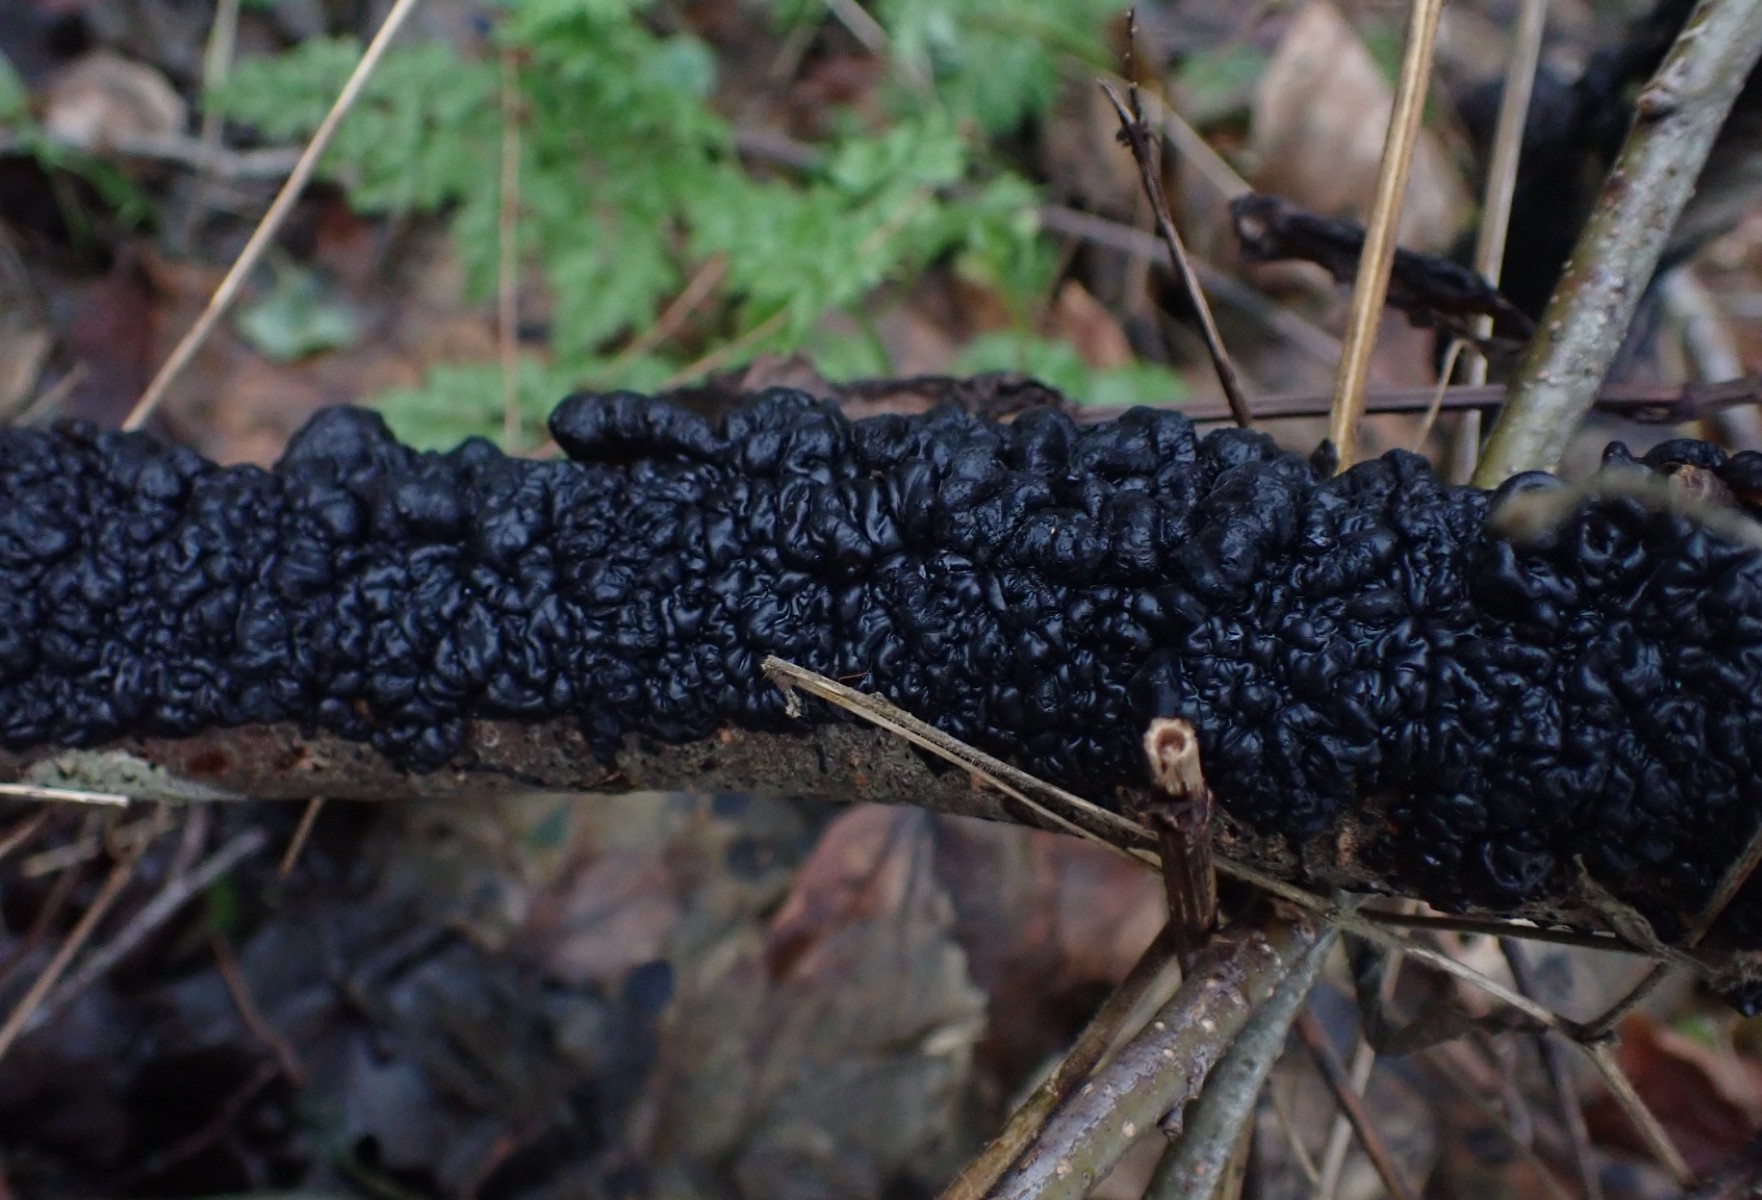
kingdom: Fungi
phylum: Basidiomycota
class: Agaricomycetes
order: Auriculariales
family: Auriculariaceae
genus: Exidia
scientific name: Exidia nigricans
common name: almindelig bævretop
